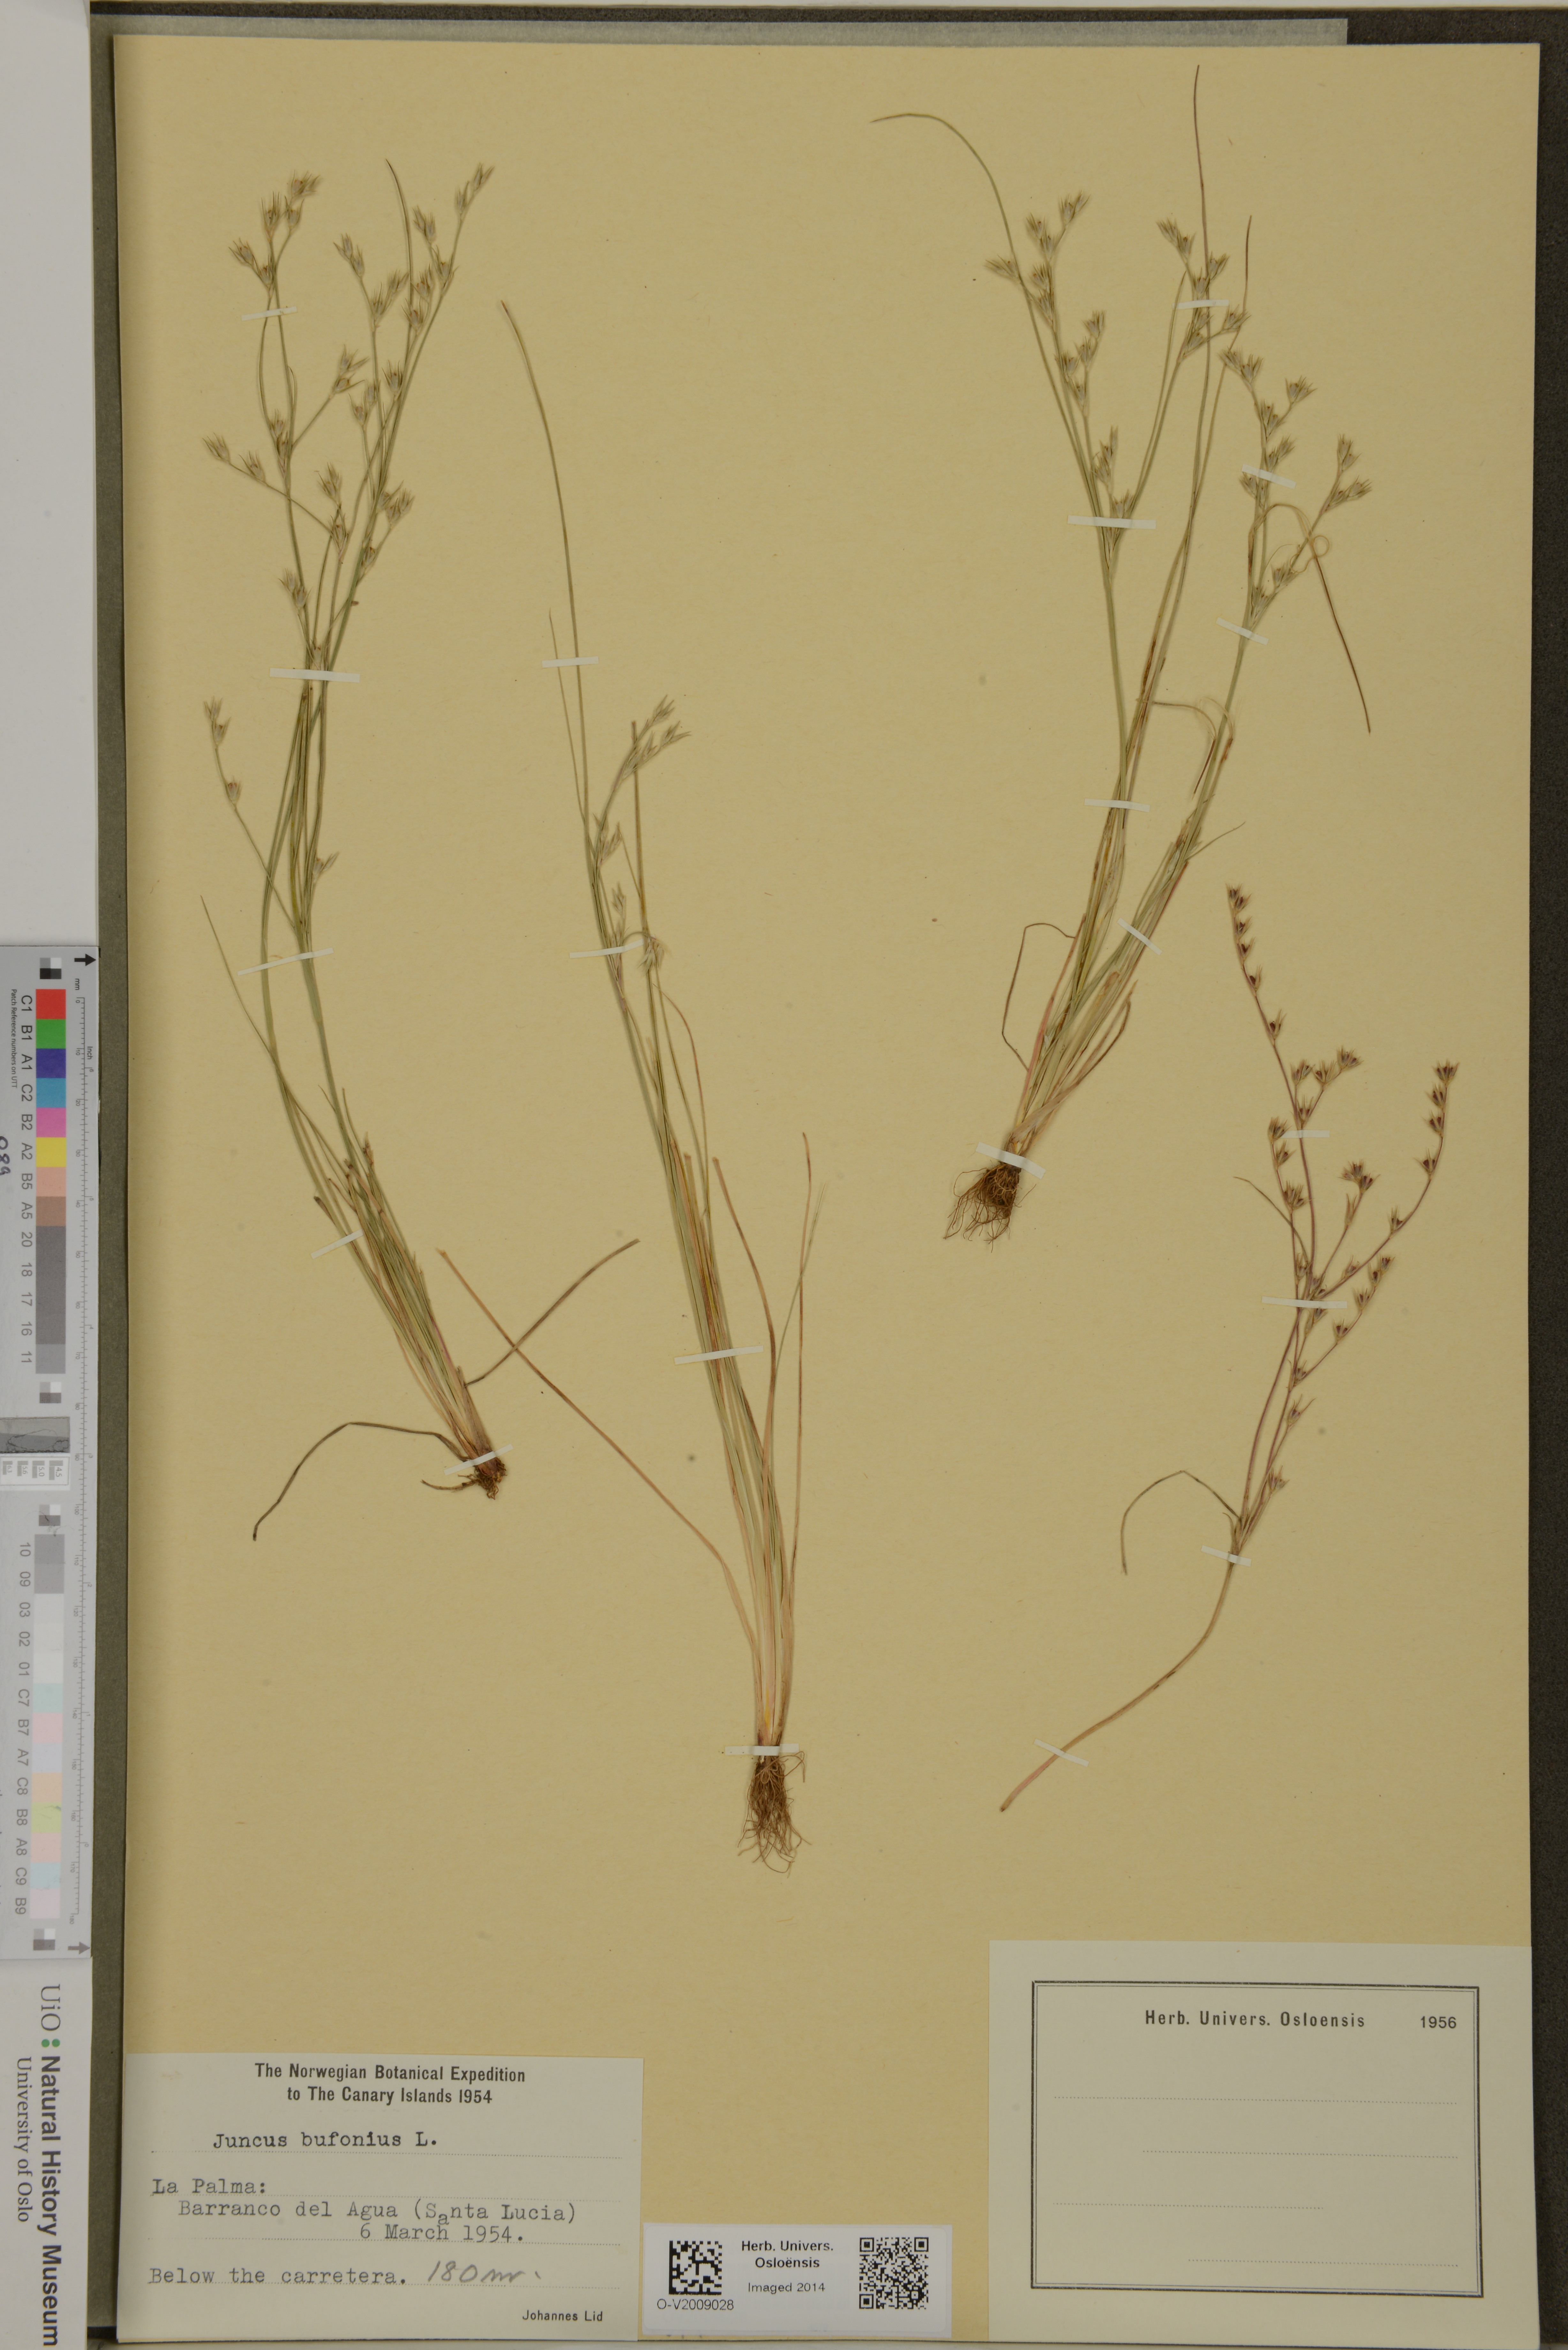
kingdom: Plantae
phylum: Tracheophyta
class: Liliopsida
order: Poales
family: Juncaceae
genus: Juncus
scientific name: Juncus bufonius
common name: Toad rush
